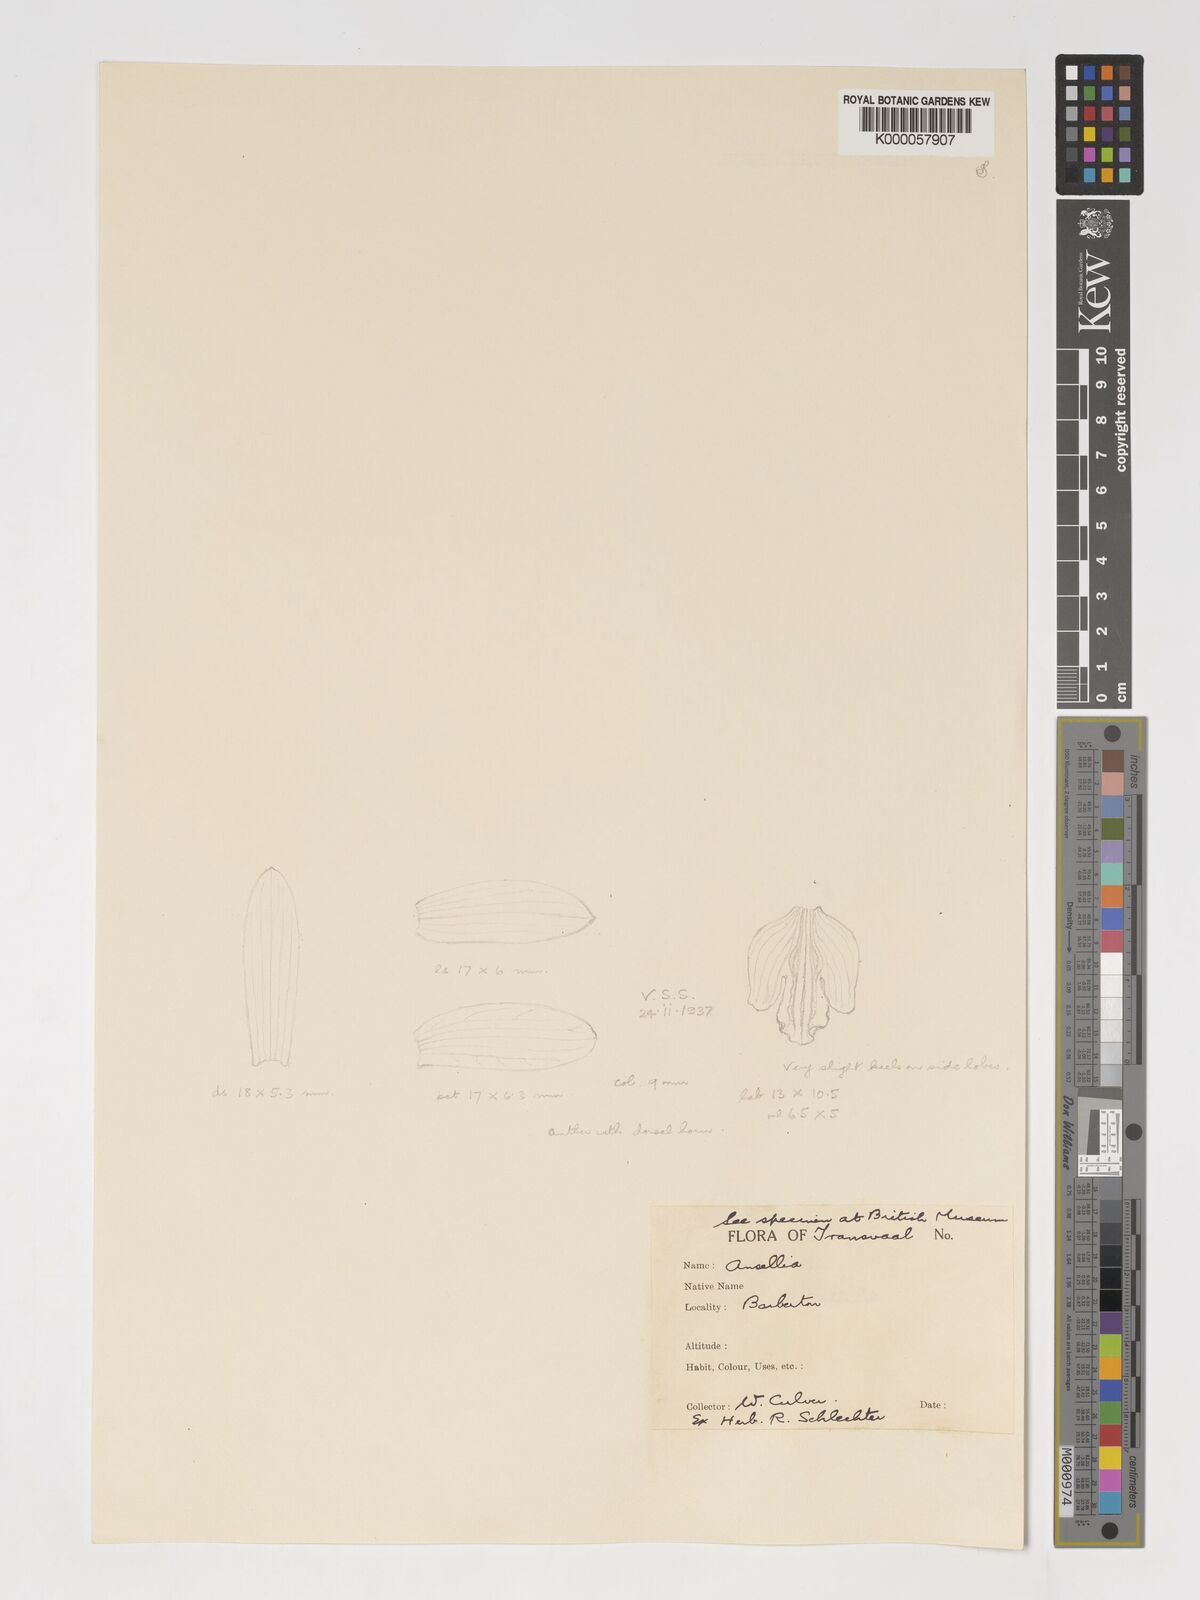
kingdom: Plantae
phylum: Tracheophyta
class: Liliopsida
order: Asparagales
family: Orchidaceae
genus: Ansellia
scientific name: Ansellia africana
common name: African ansellia
